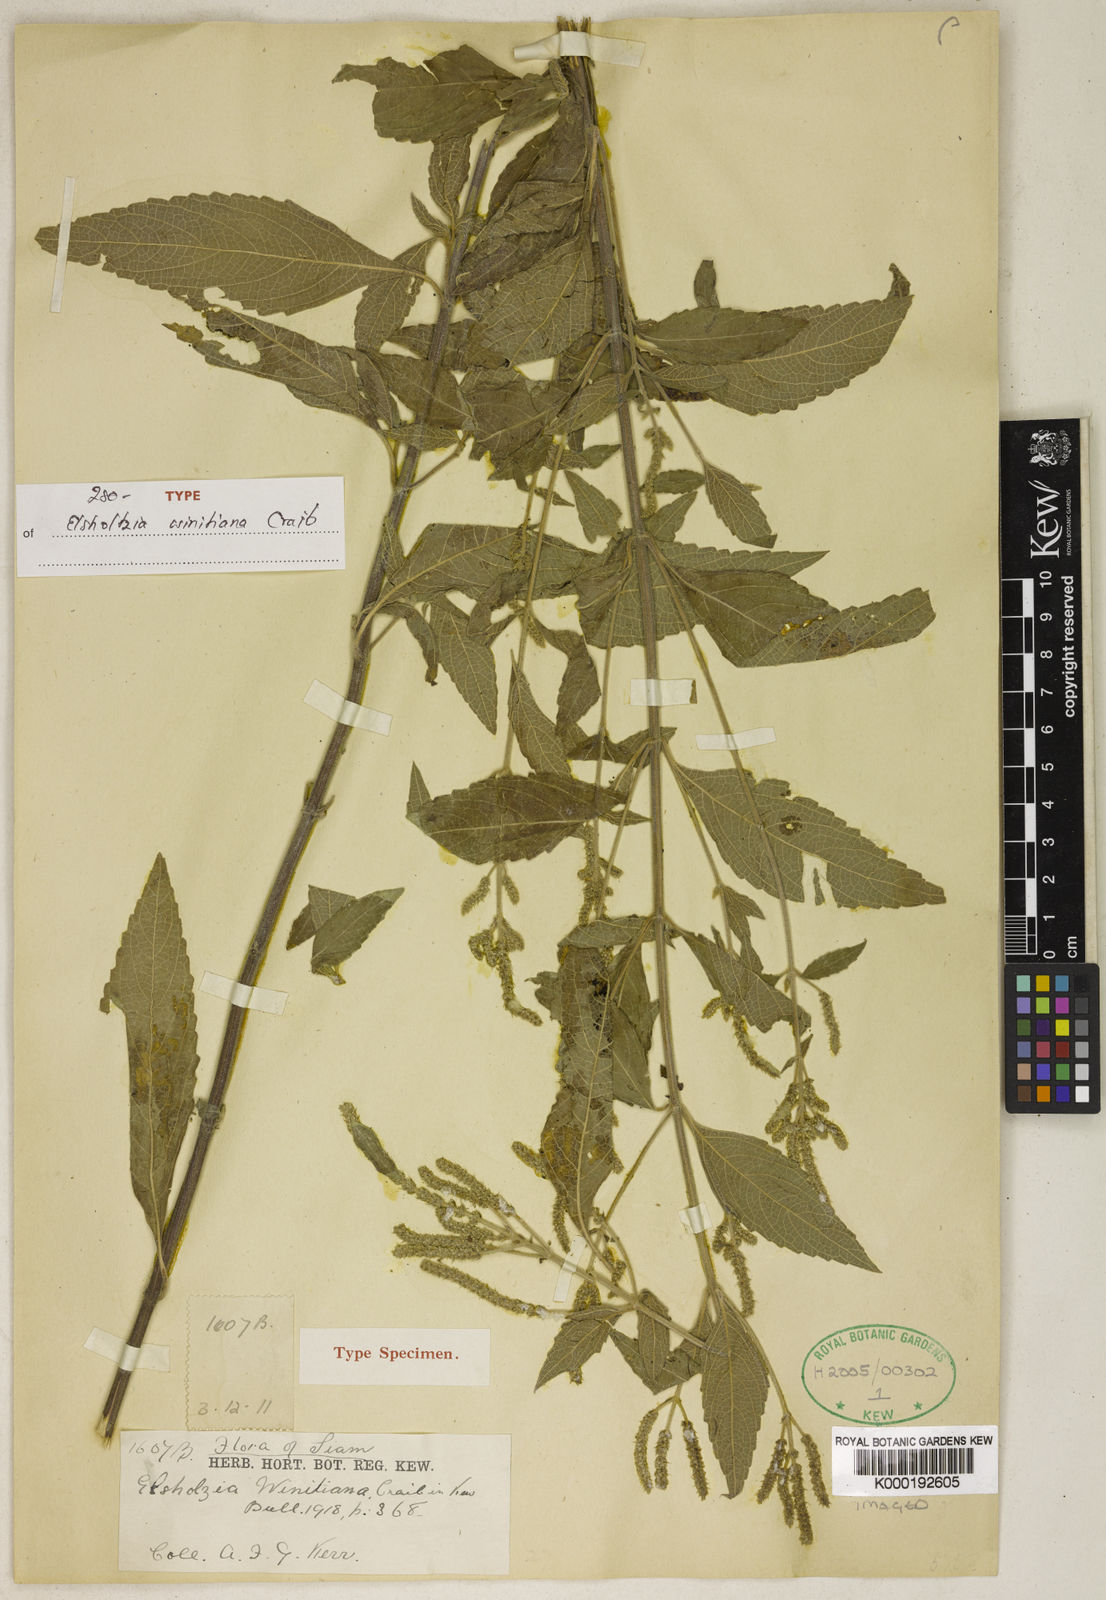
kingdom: Plantae
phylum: Tracheophyta
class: Magnoliopsida
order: Lamiales
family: Lamiaceae
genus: Elsholtzia
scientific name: Elsholtzia winitiana
